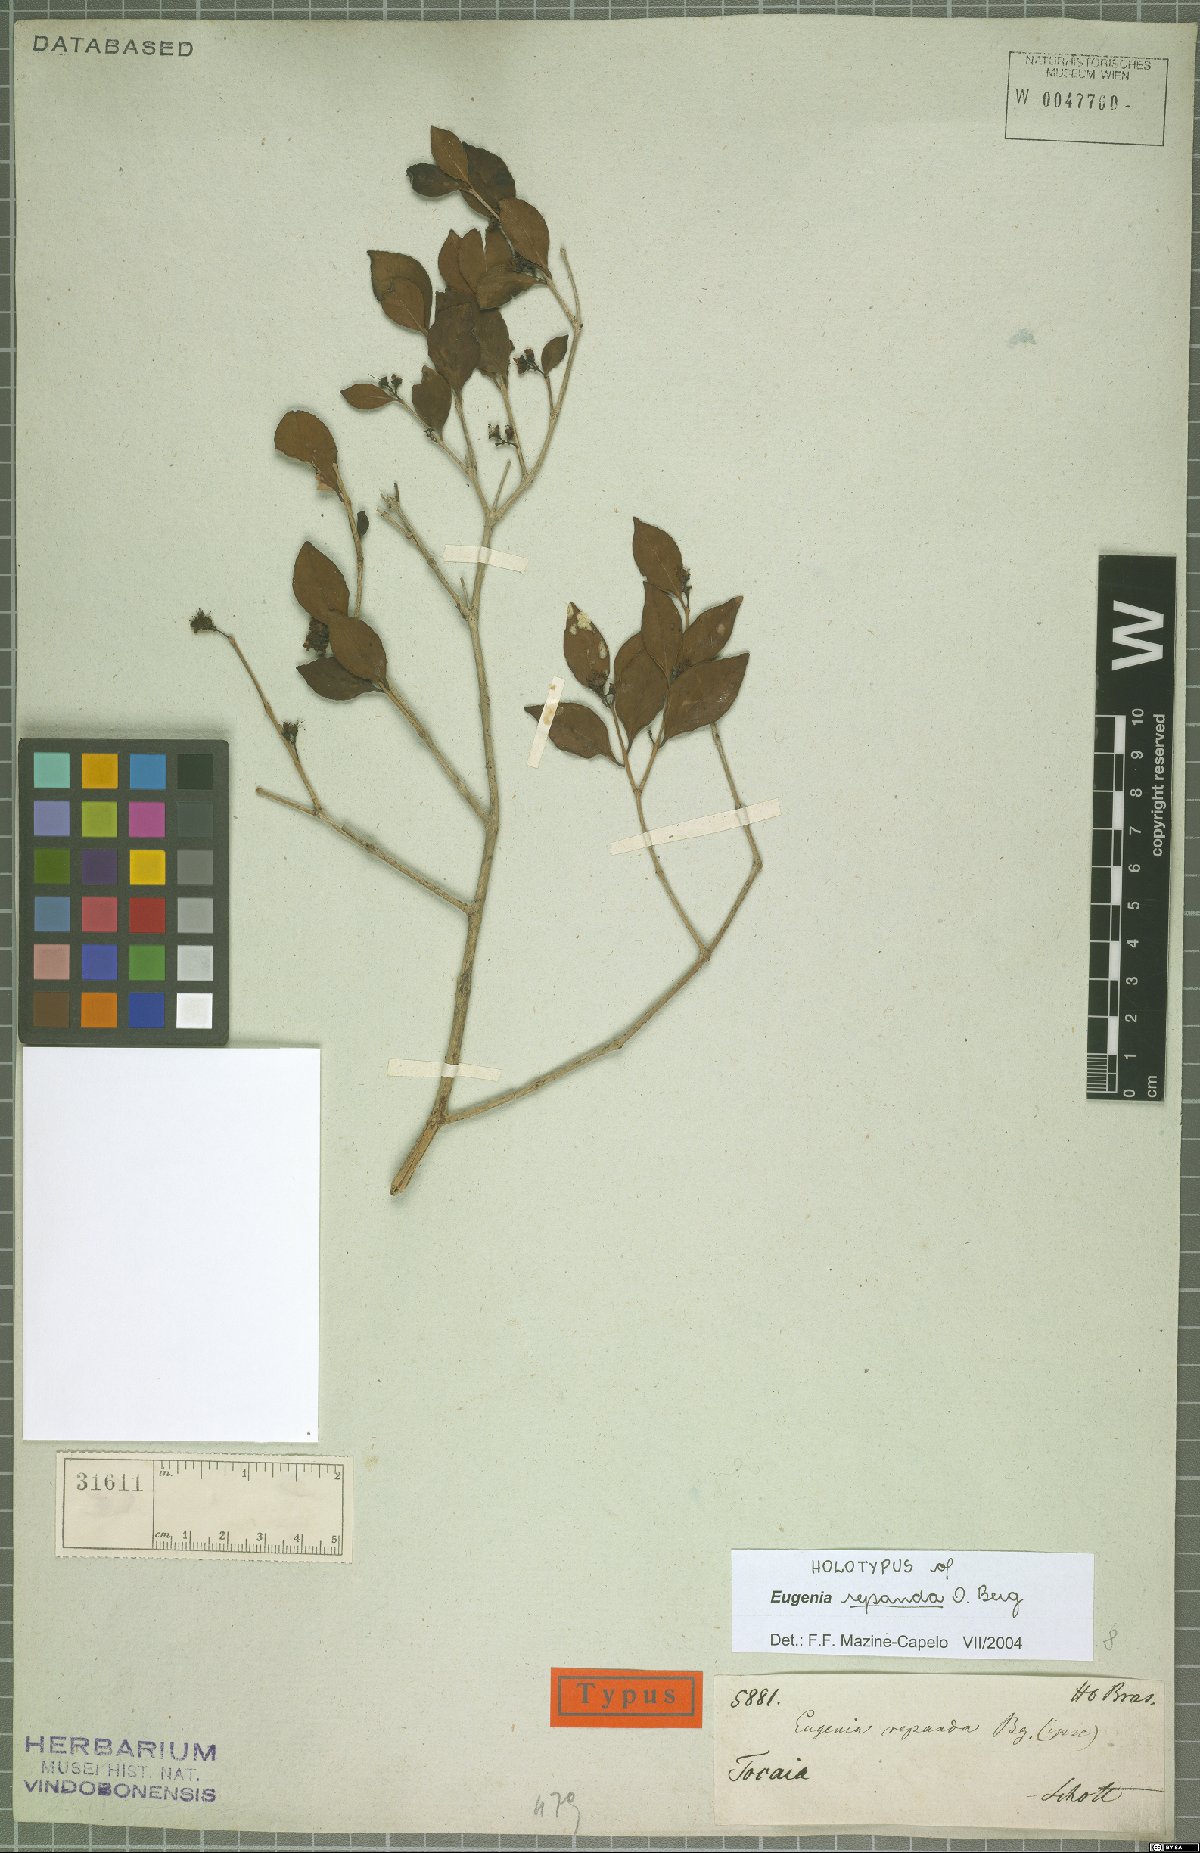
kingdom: Plantae
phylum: Tracheophyta
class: Magnoliopsida
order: Myrtales
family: Myrtaceae
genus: Eugenia
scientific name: Eugenia repanda
